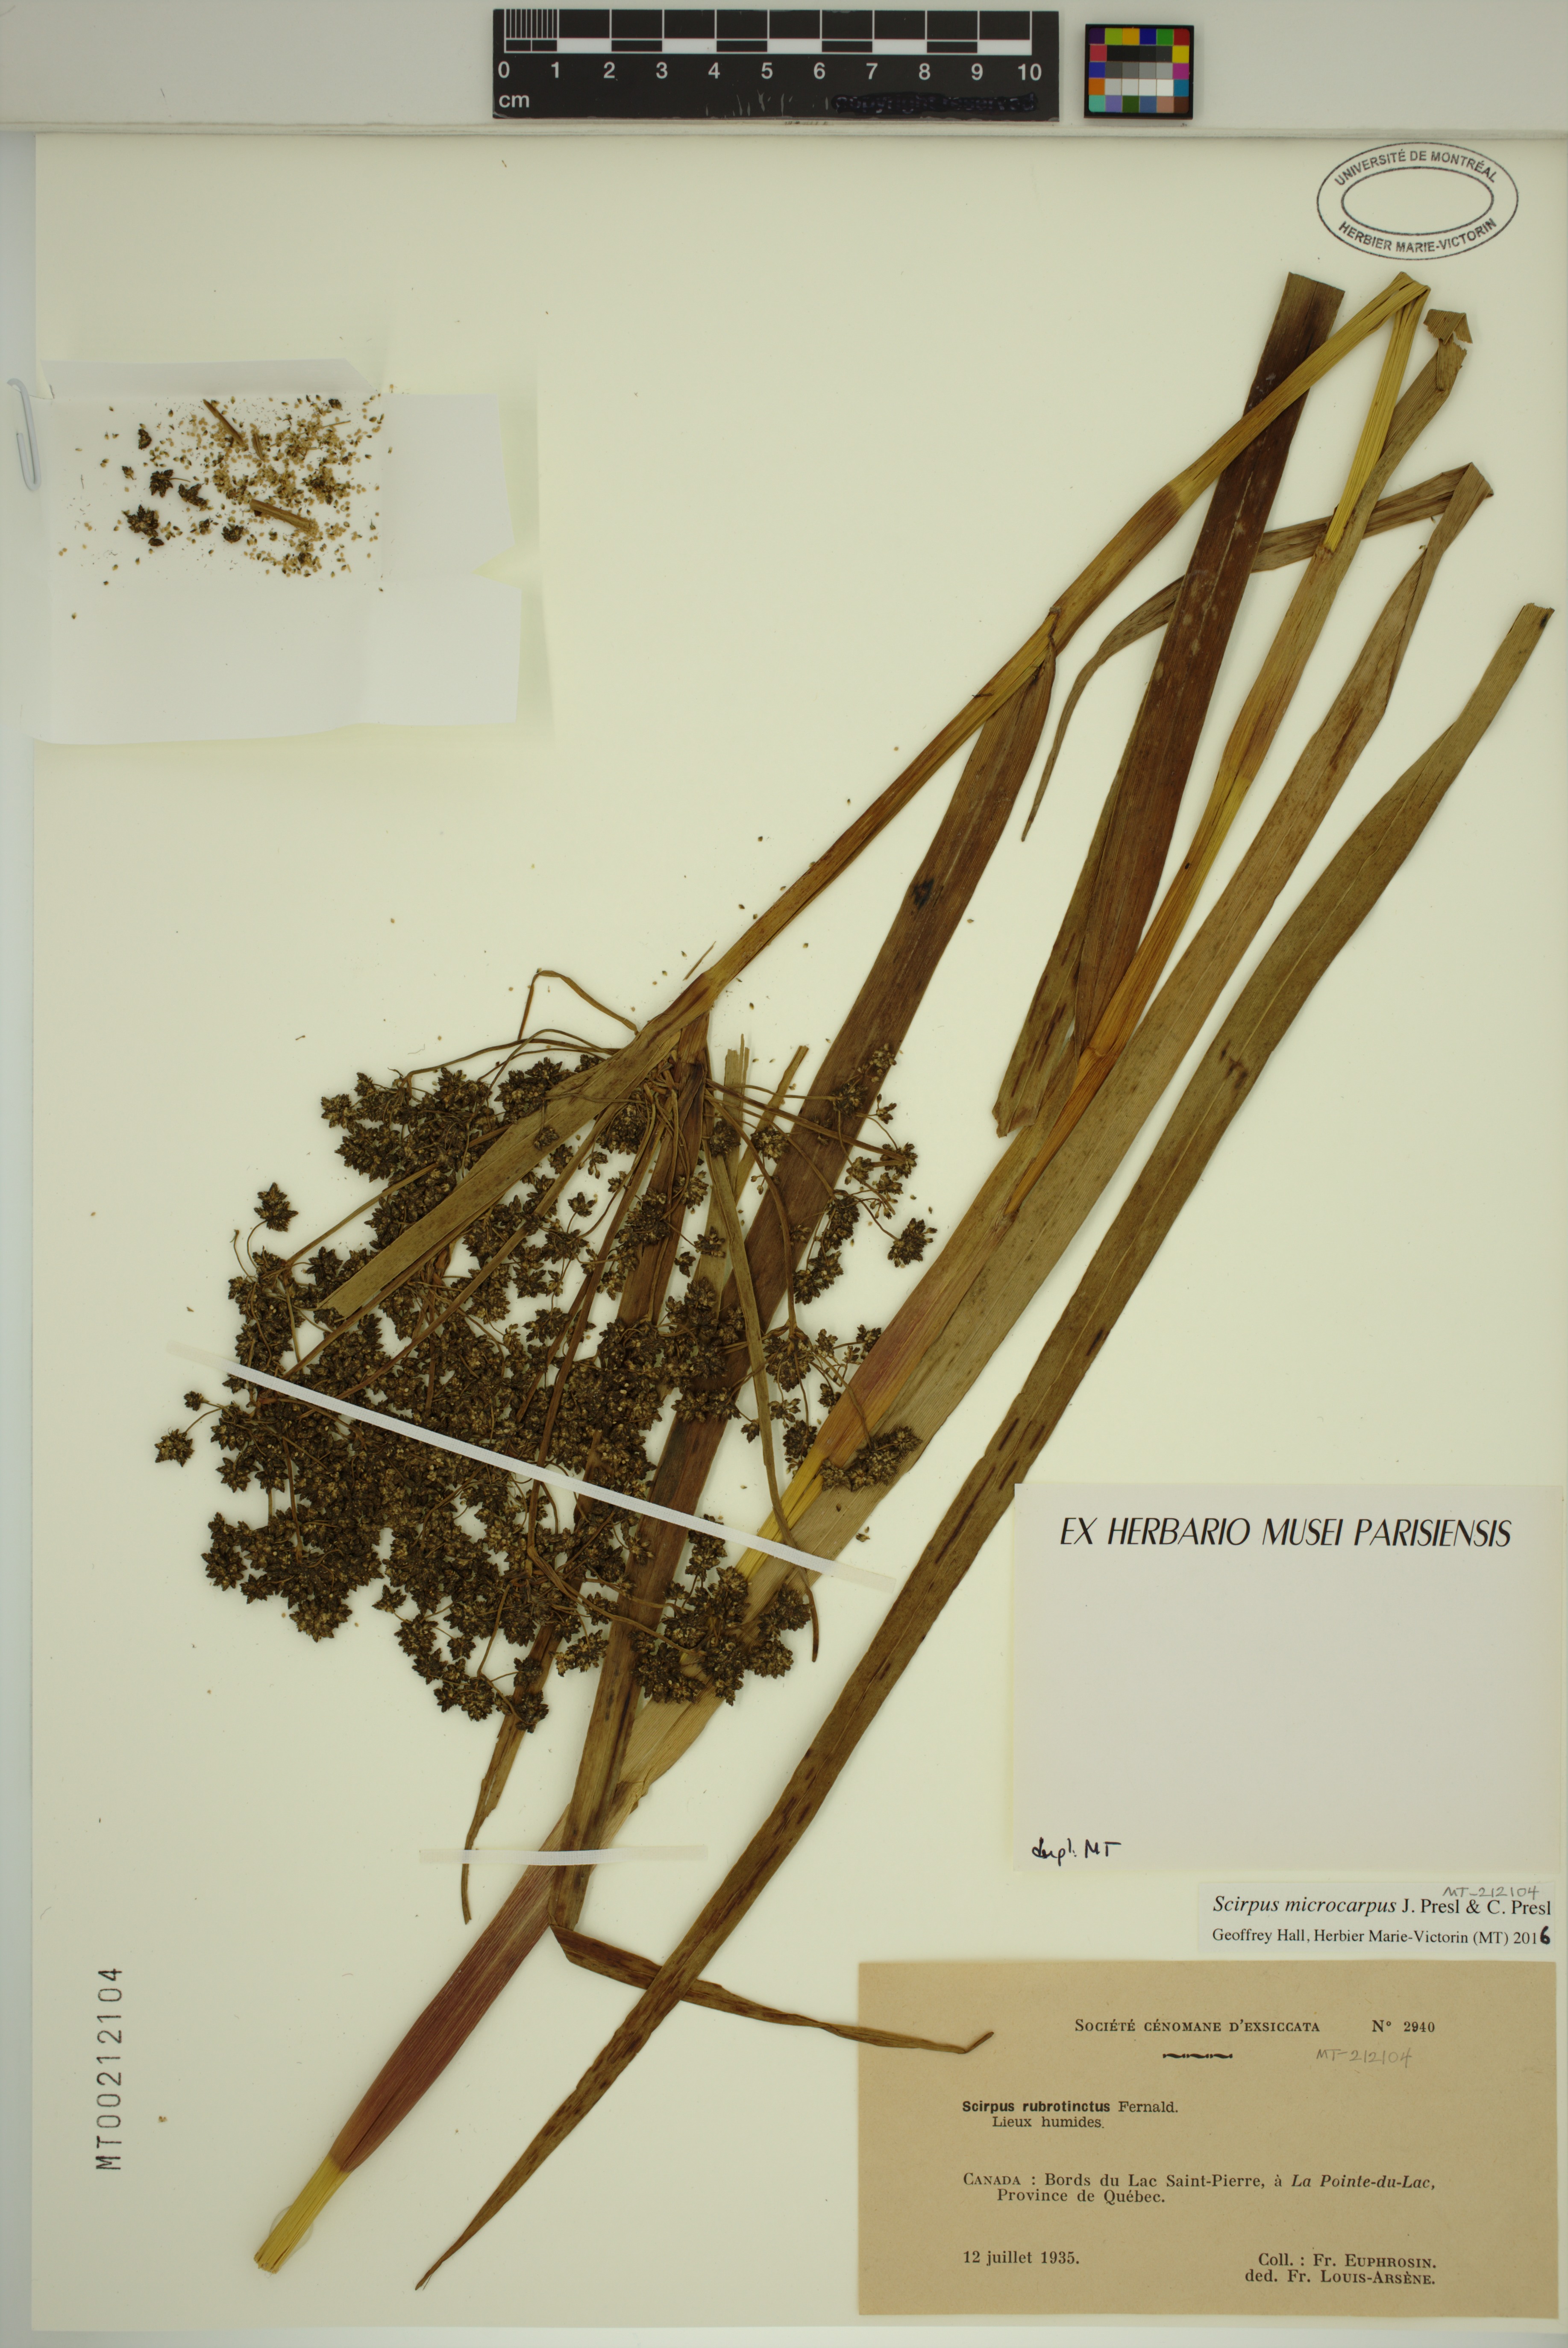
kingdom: Plantae
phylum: Tracheophyta
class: Liliopsida
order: Poales
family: Cyperaceae
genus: Scirpus
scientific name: Scirpus microcarpus
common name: Panicled bulrush
